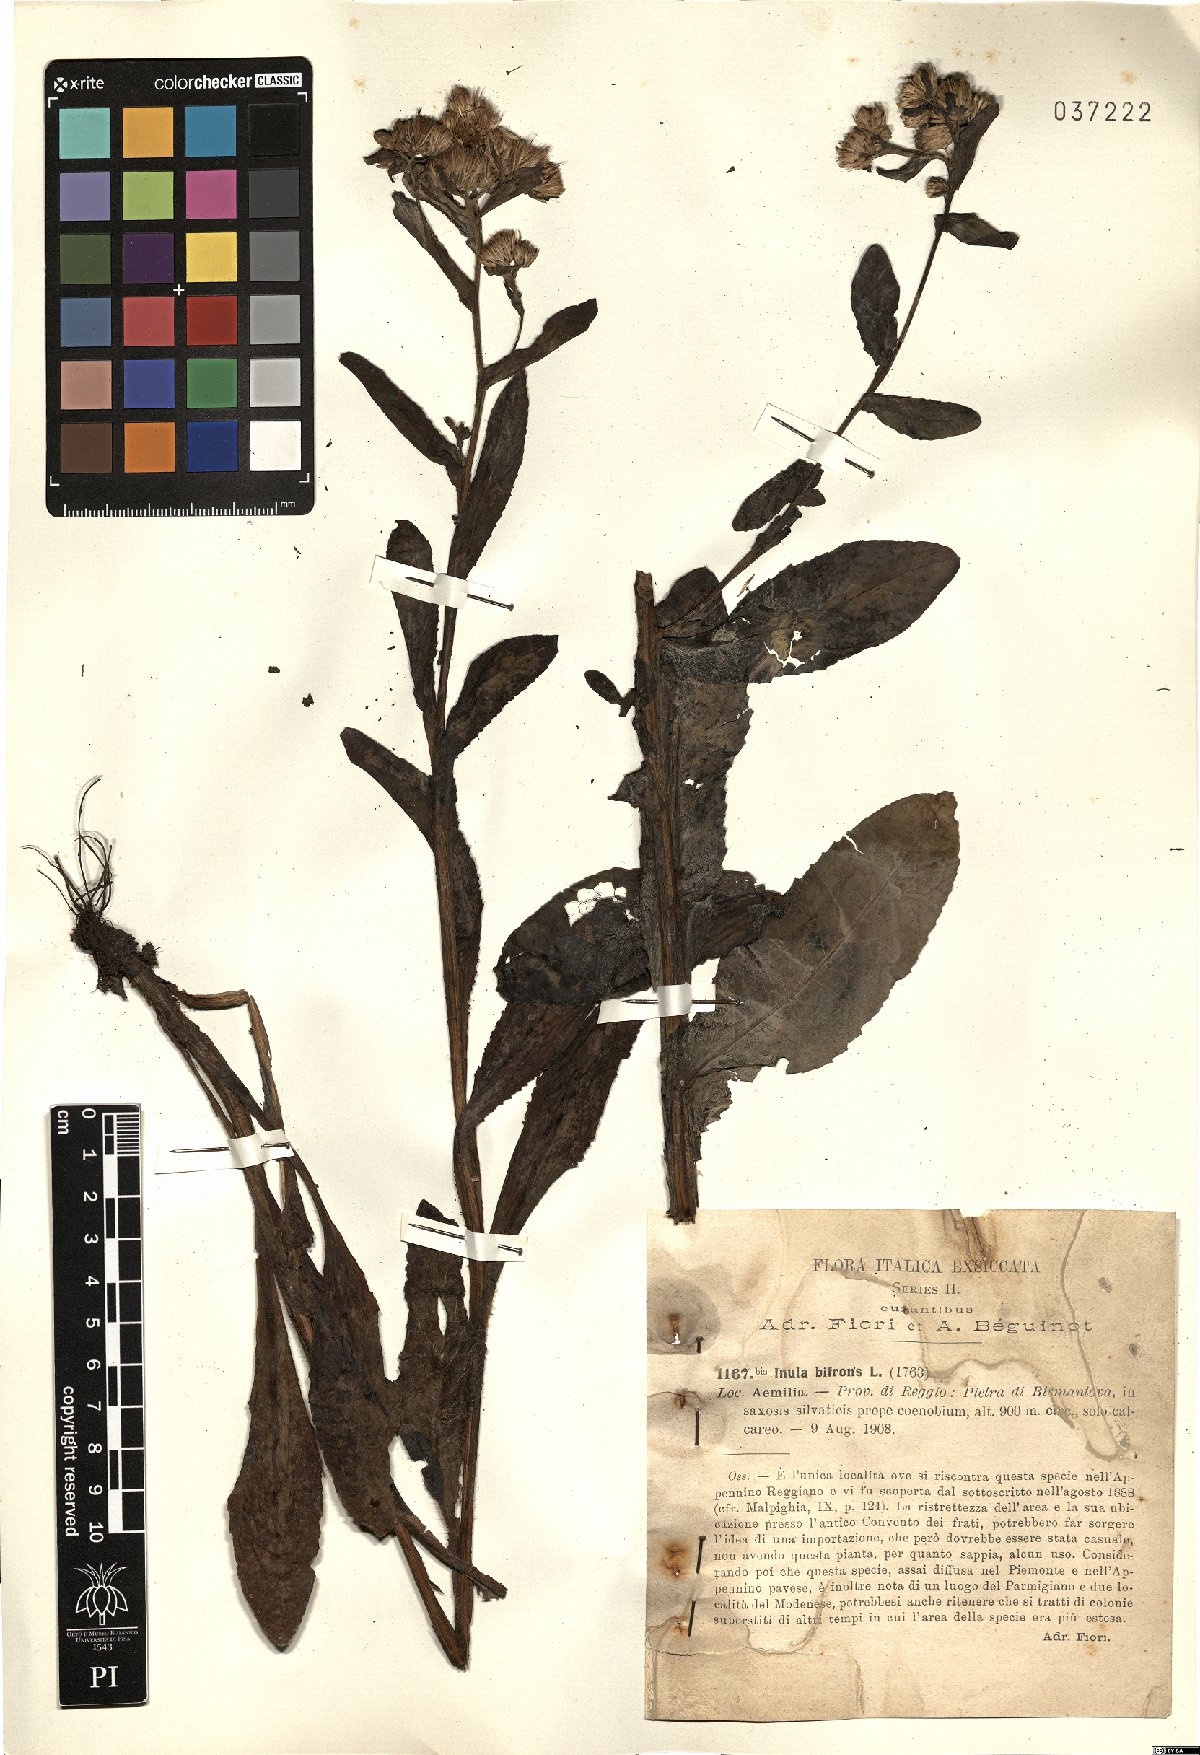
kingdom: Plantae
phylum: Tracheophyta
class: Magnoliopsida
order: Asterales
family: Asteraceae
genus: Pentanema
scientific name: Pentanema bifrons
